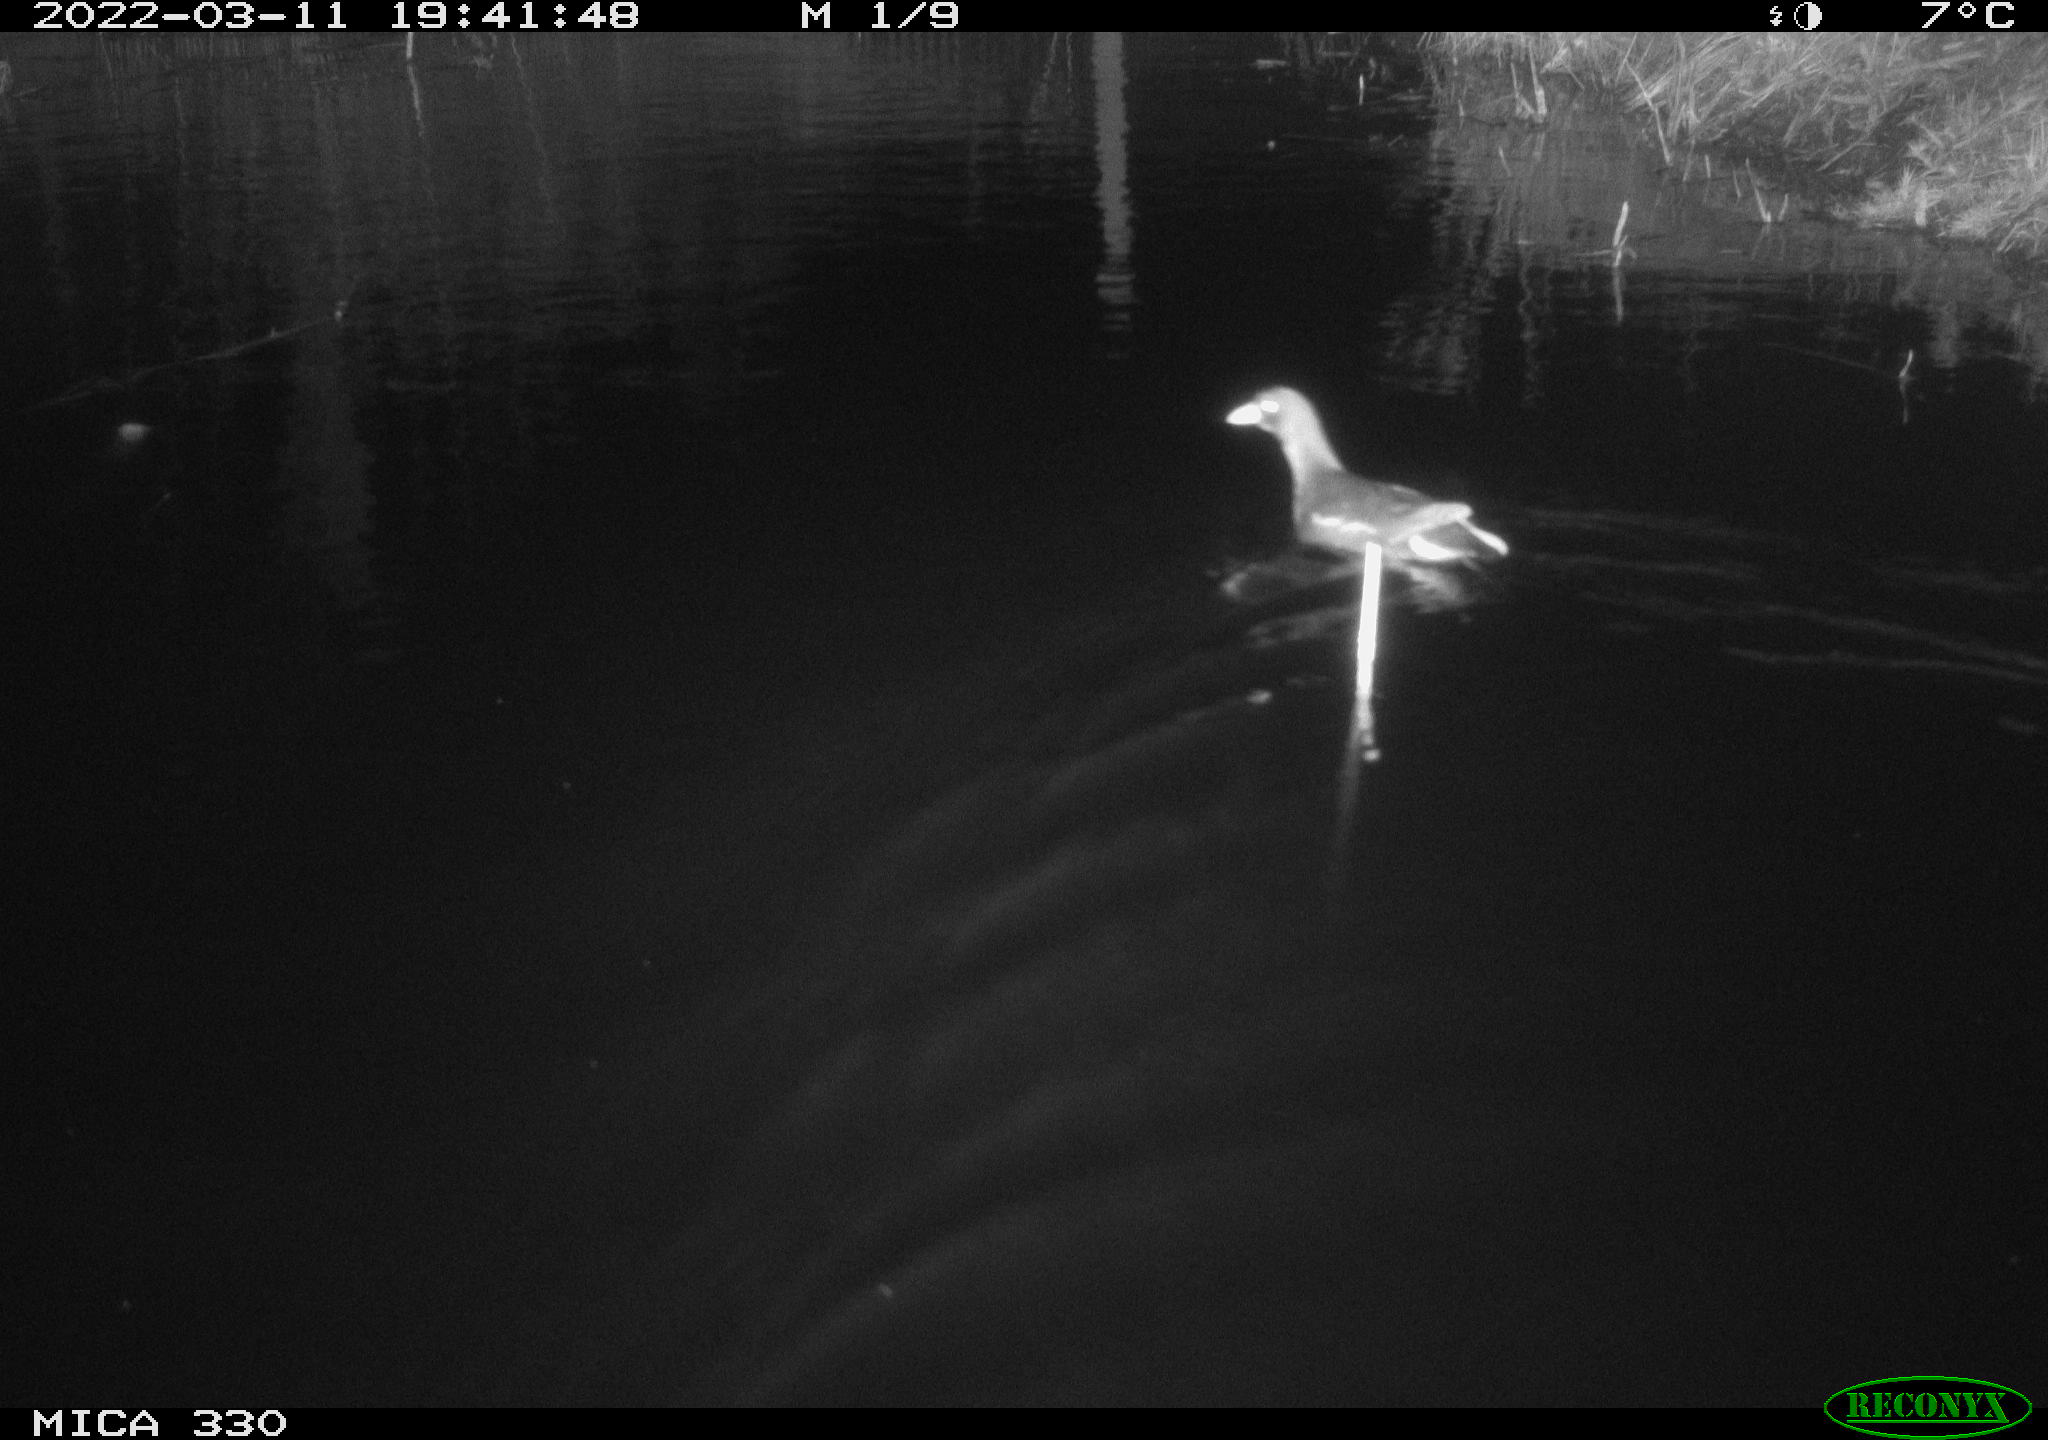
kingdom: Animalia
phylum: Chordata
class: Aves
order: Gruiformes
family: Rallidae
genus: Gallinula
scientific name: Gallinula chloropus
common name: Common moorhen
